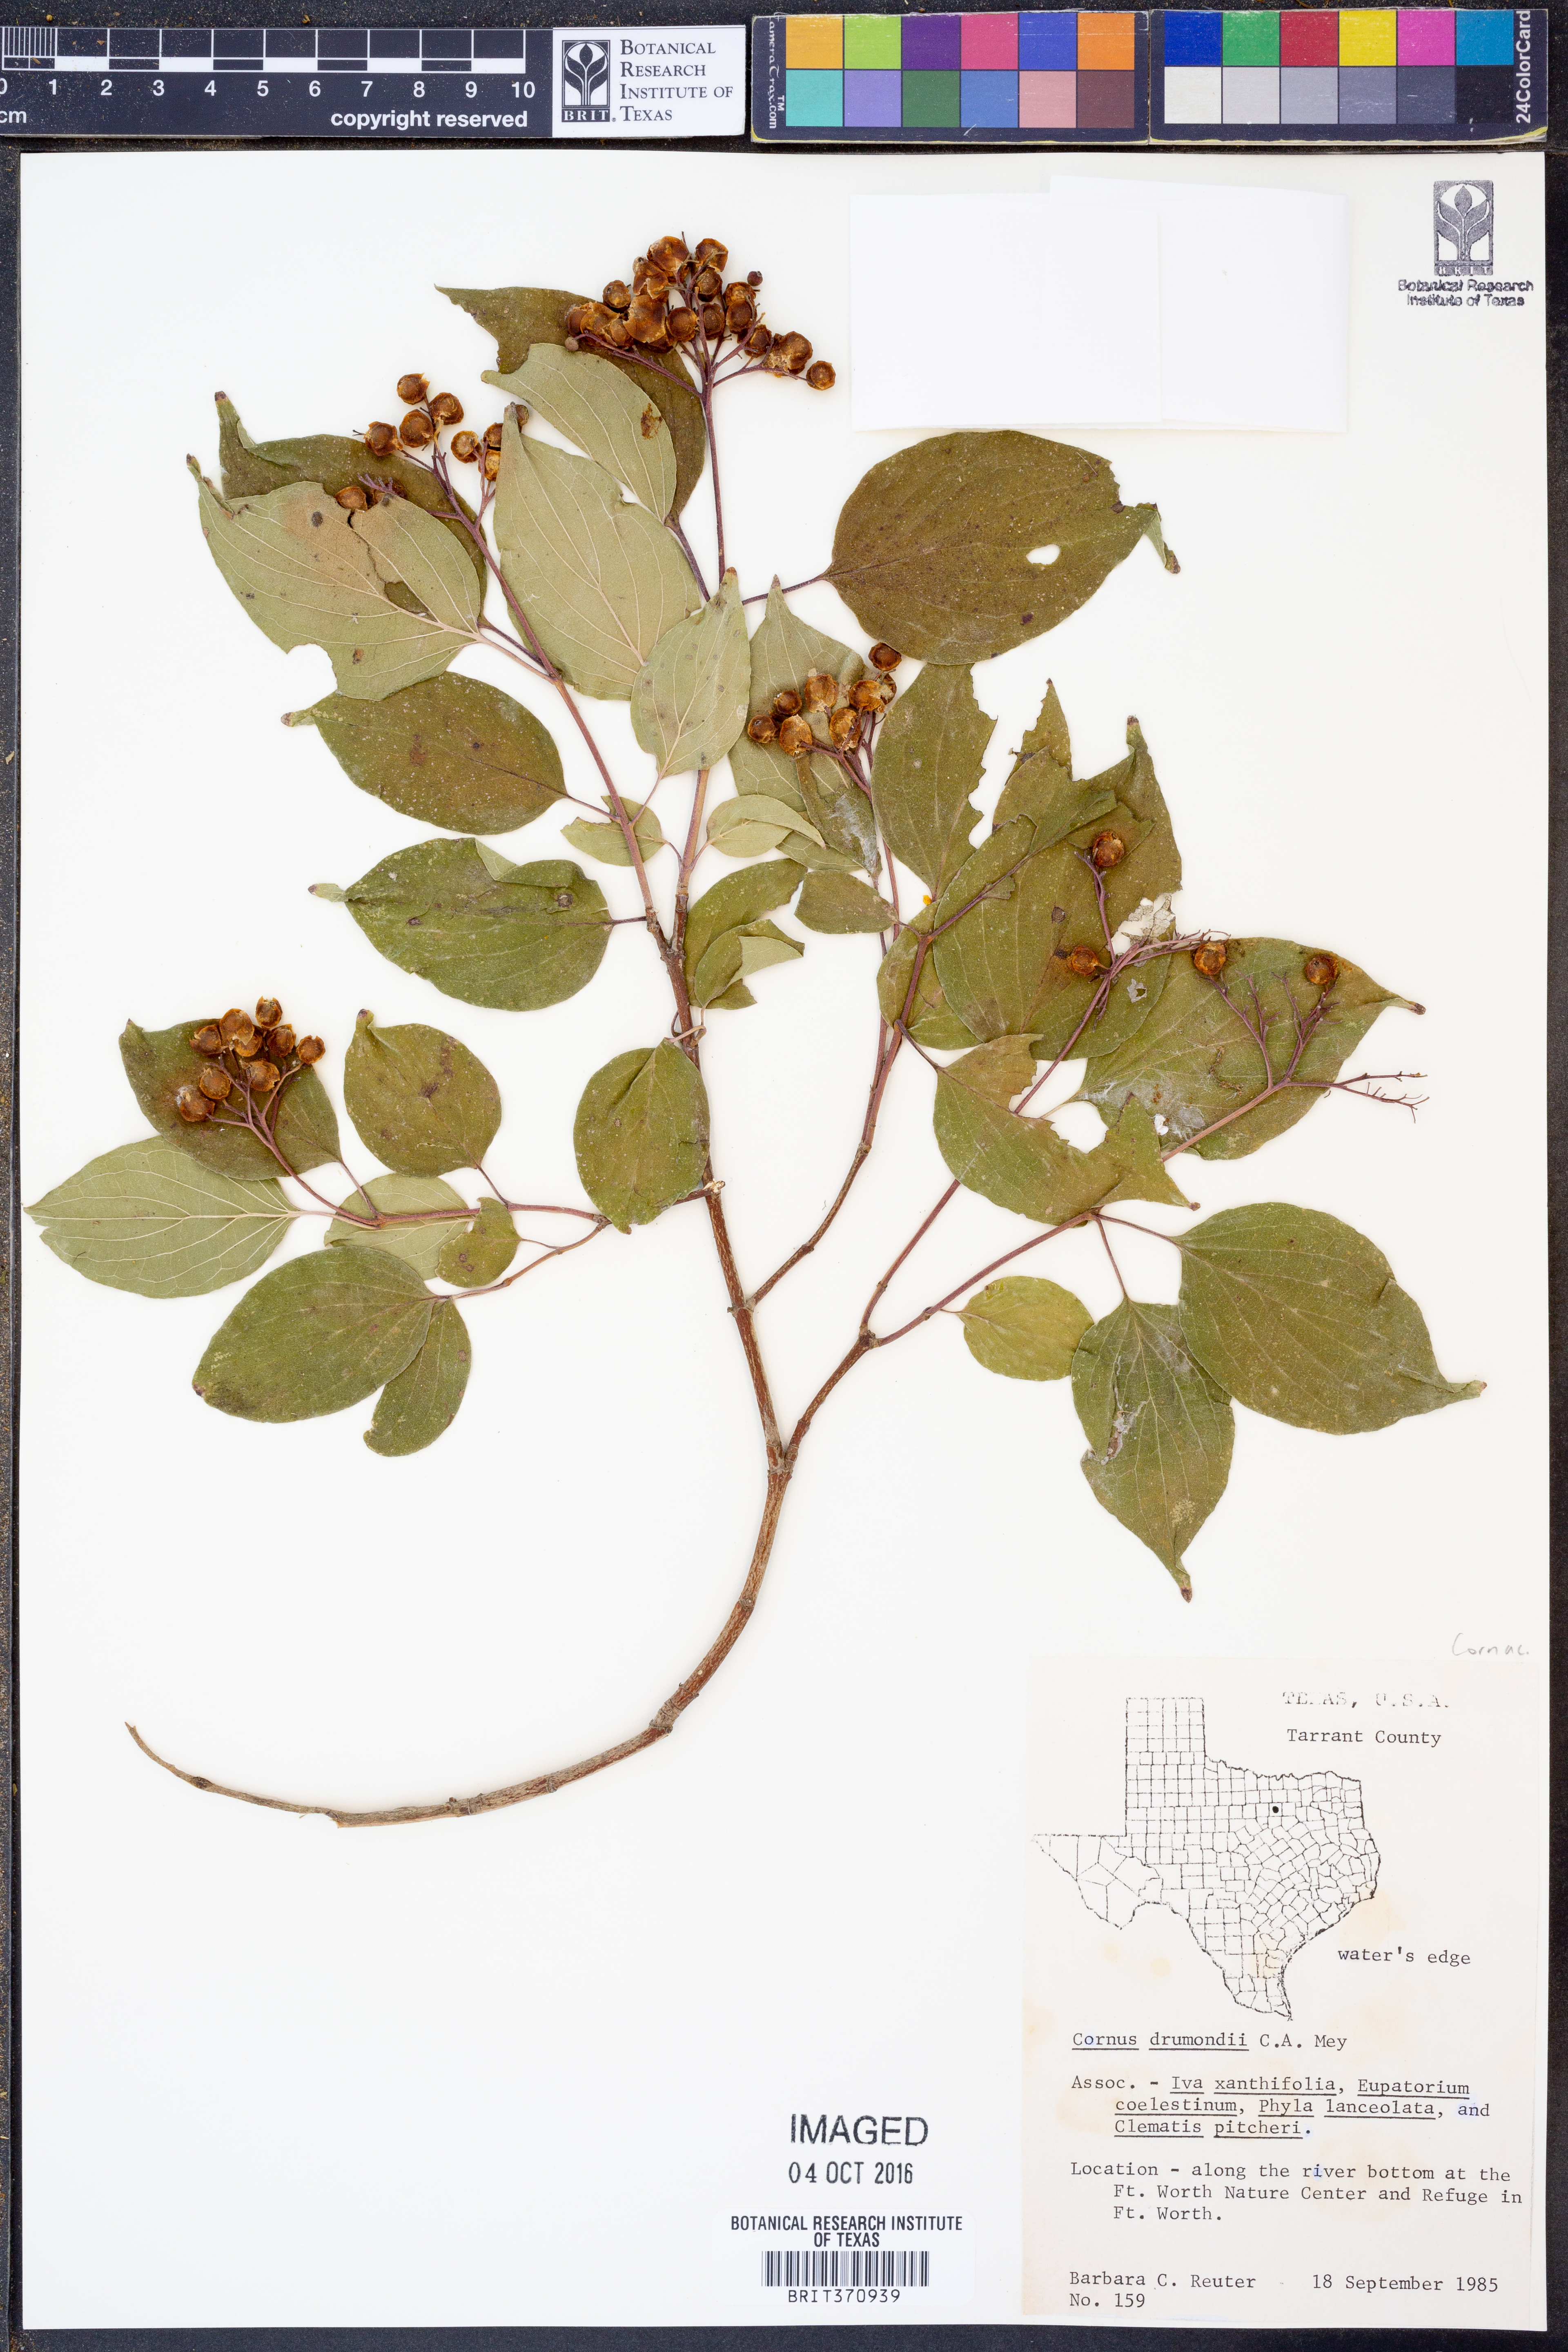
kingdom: Plantae
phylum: Tracheophyta
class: Magnoliopsida
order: Cornales
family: Cornaceae
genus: Cornus
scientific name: Cornus drummondii
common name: Rough-leaf dogwood
